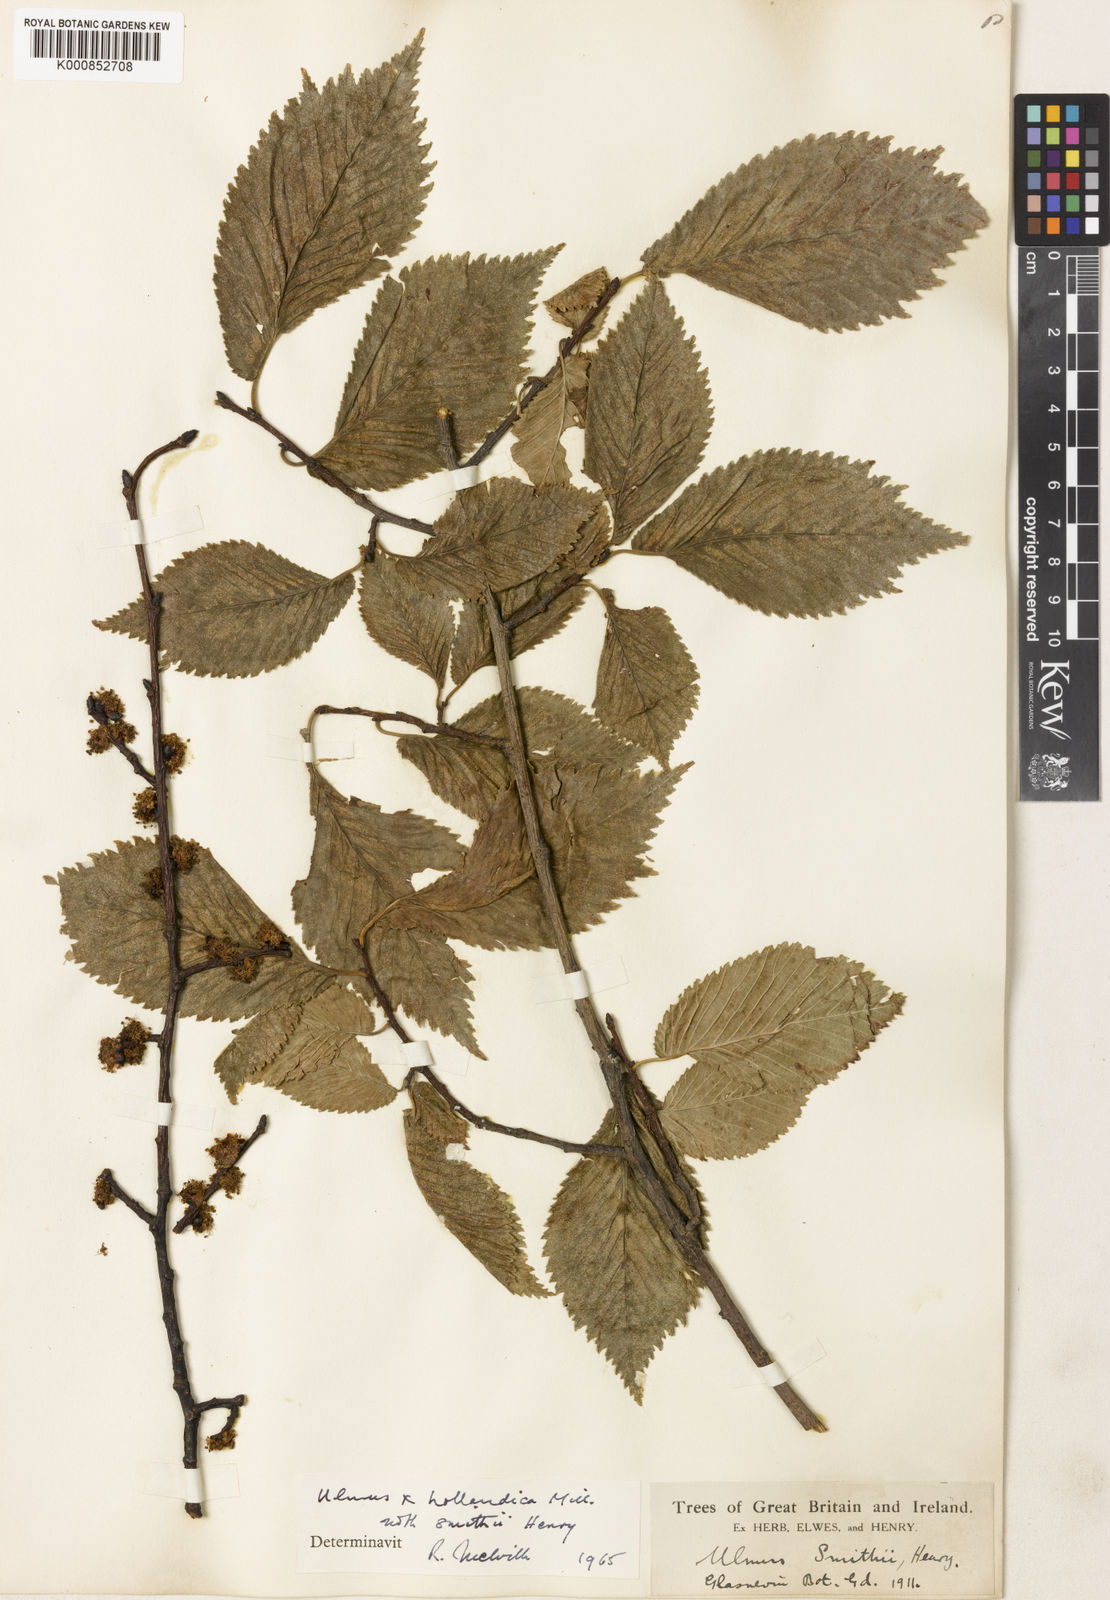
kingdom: Plantae
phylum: Tracheophyta
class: Magnoliopsida
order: Rosales
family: Ulmaceae
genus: Ulmus
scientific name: Ulmus hollandica
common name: Dutch elm
